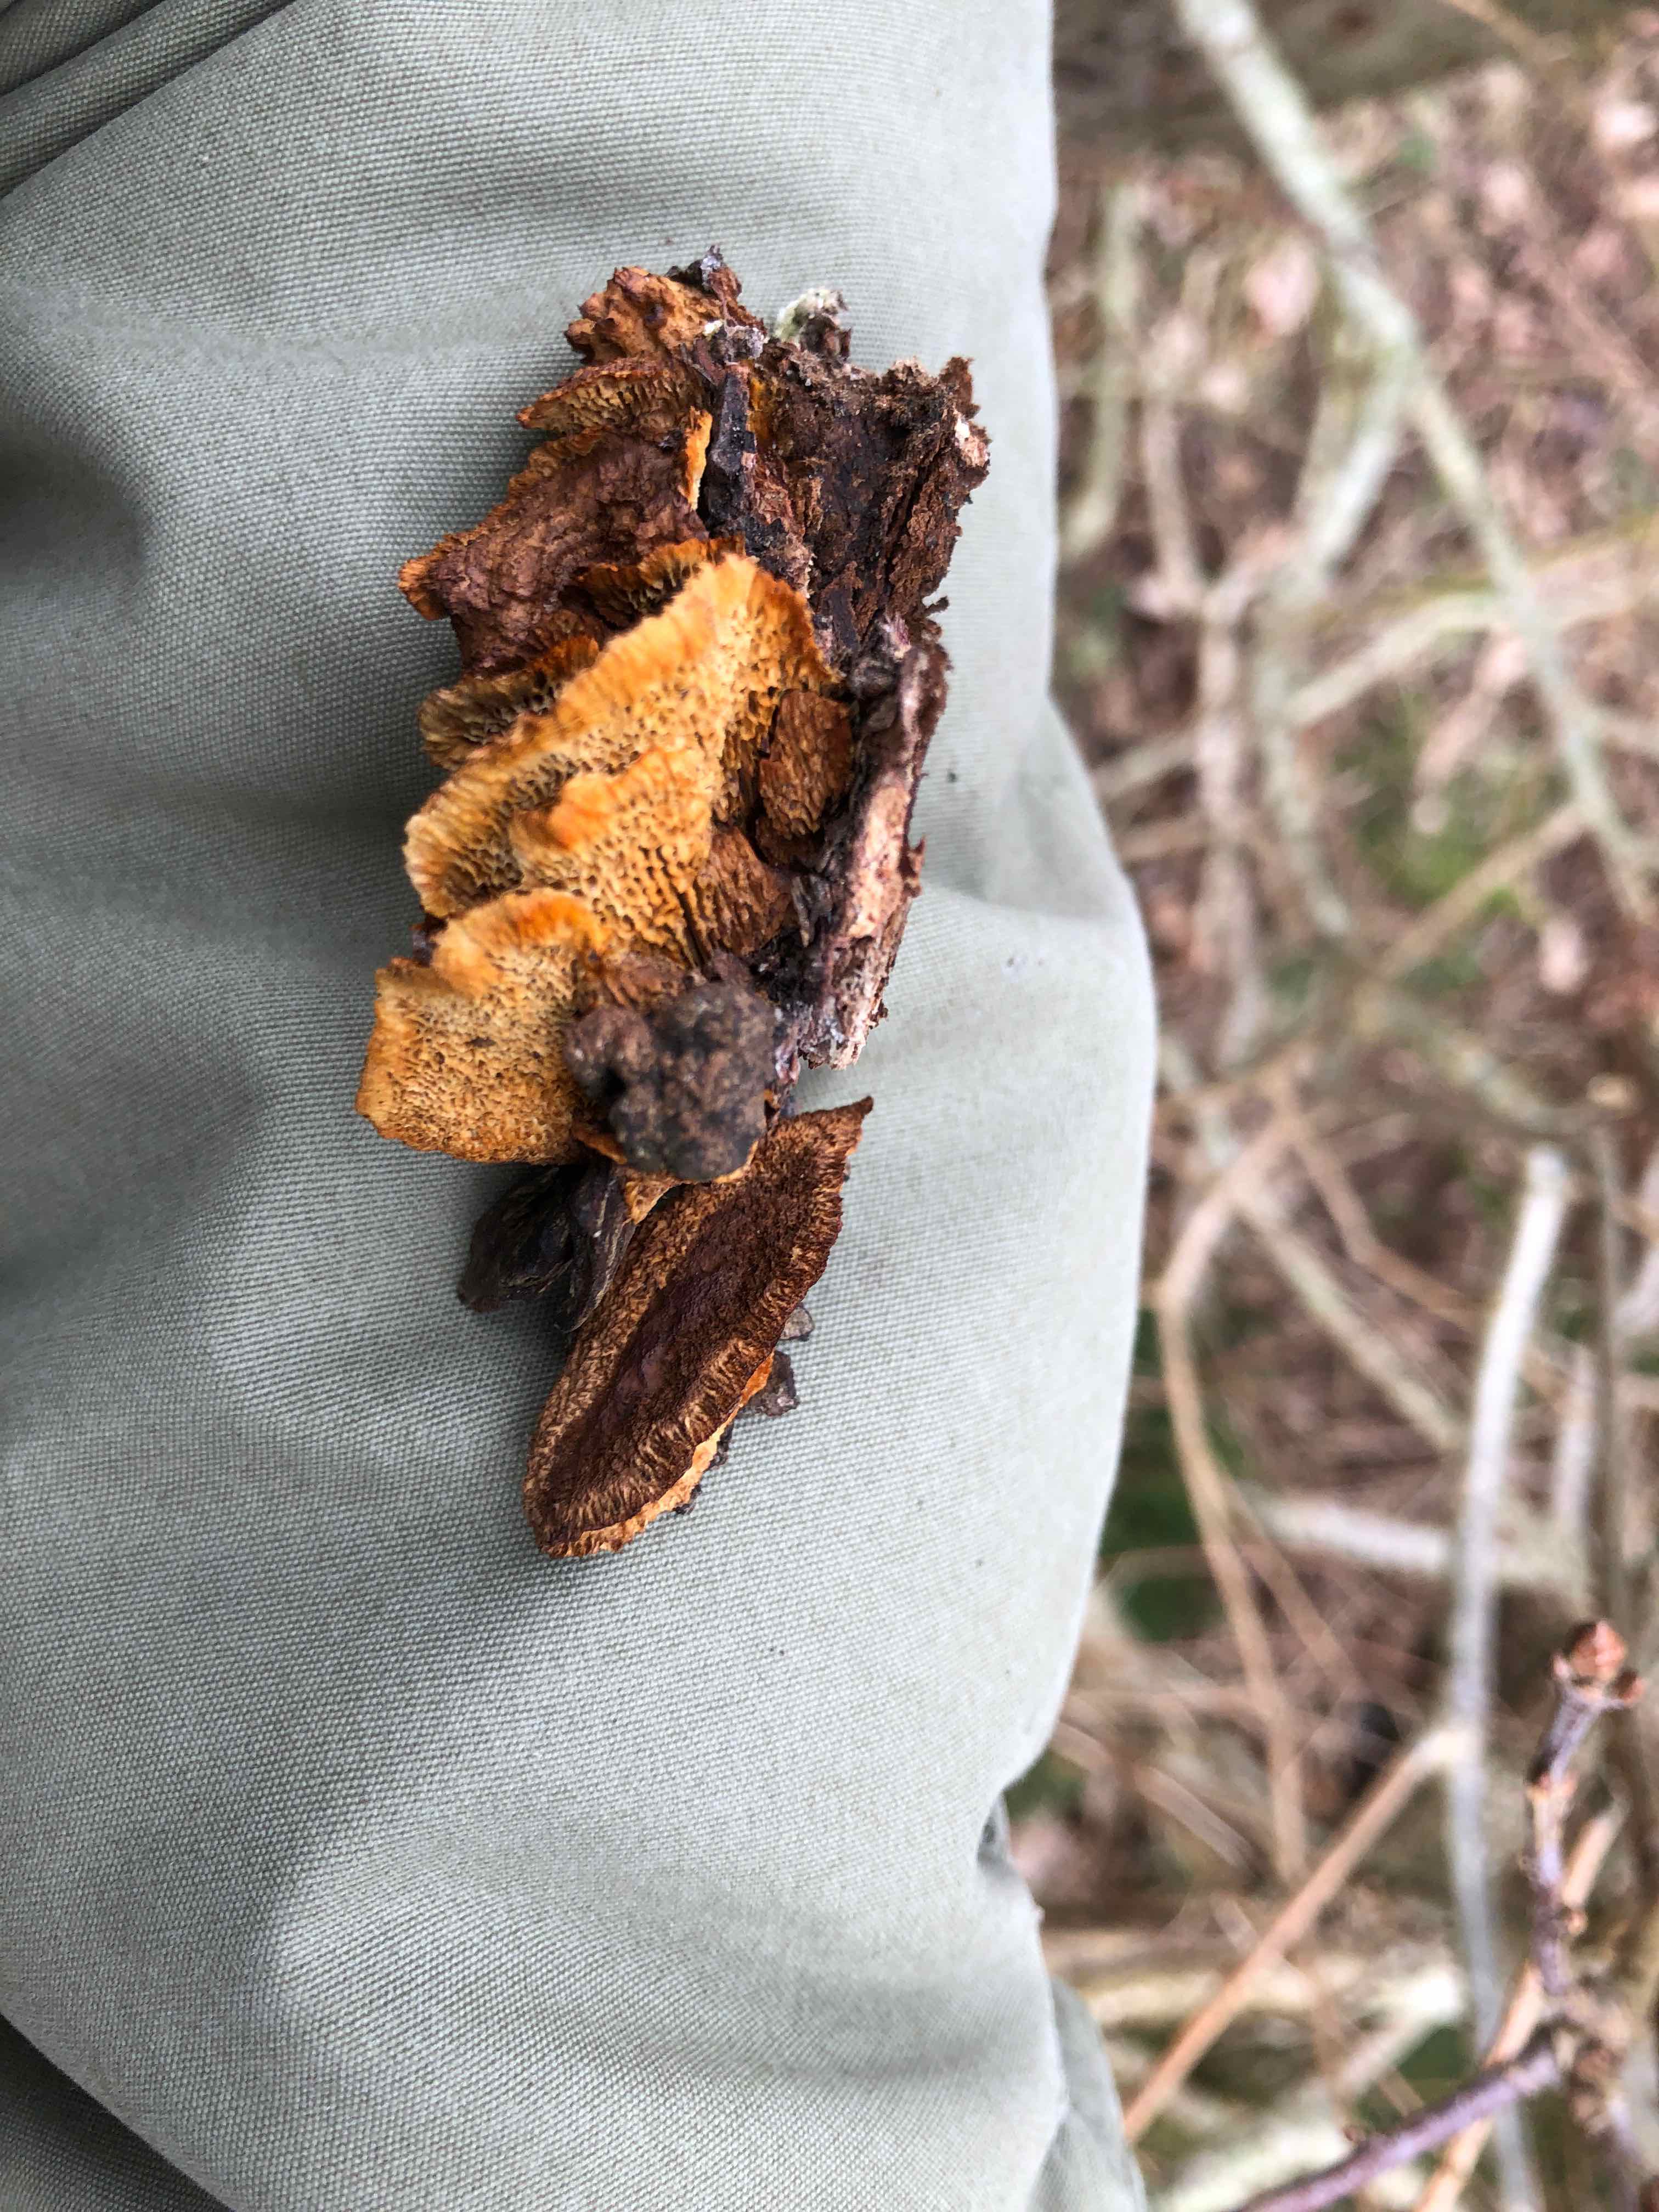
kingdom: Fungi
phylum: Basidiomycota
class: Agaricomycetes
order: Gloeophyllales
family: Gloeophyllaceae
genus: Gloeophyllum
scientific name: Gloeophyllum sepiarium
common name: fyrre-korkhat
